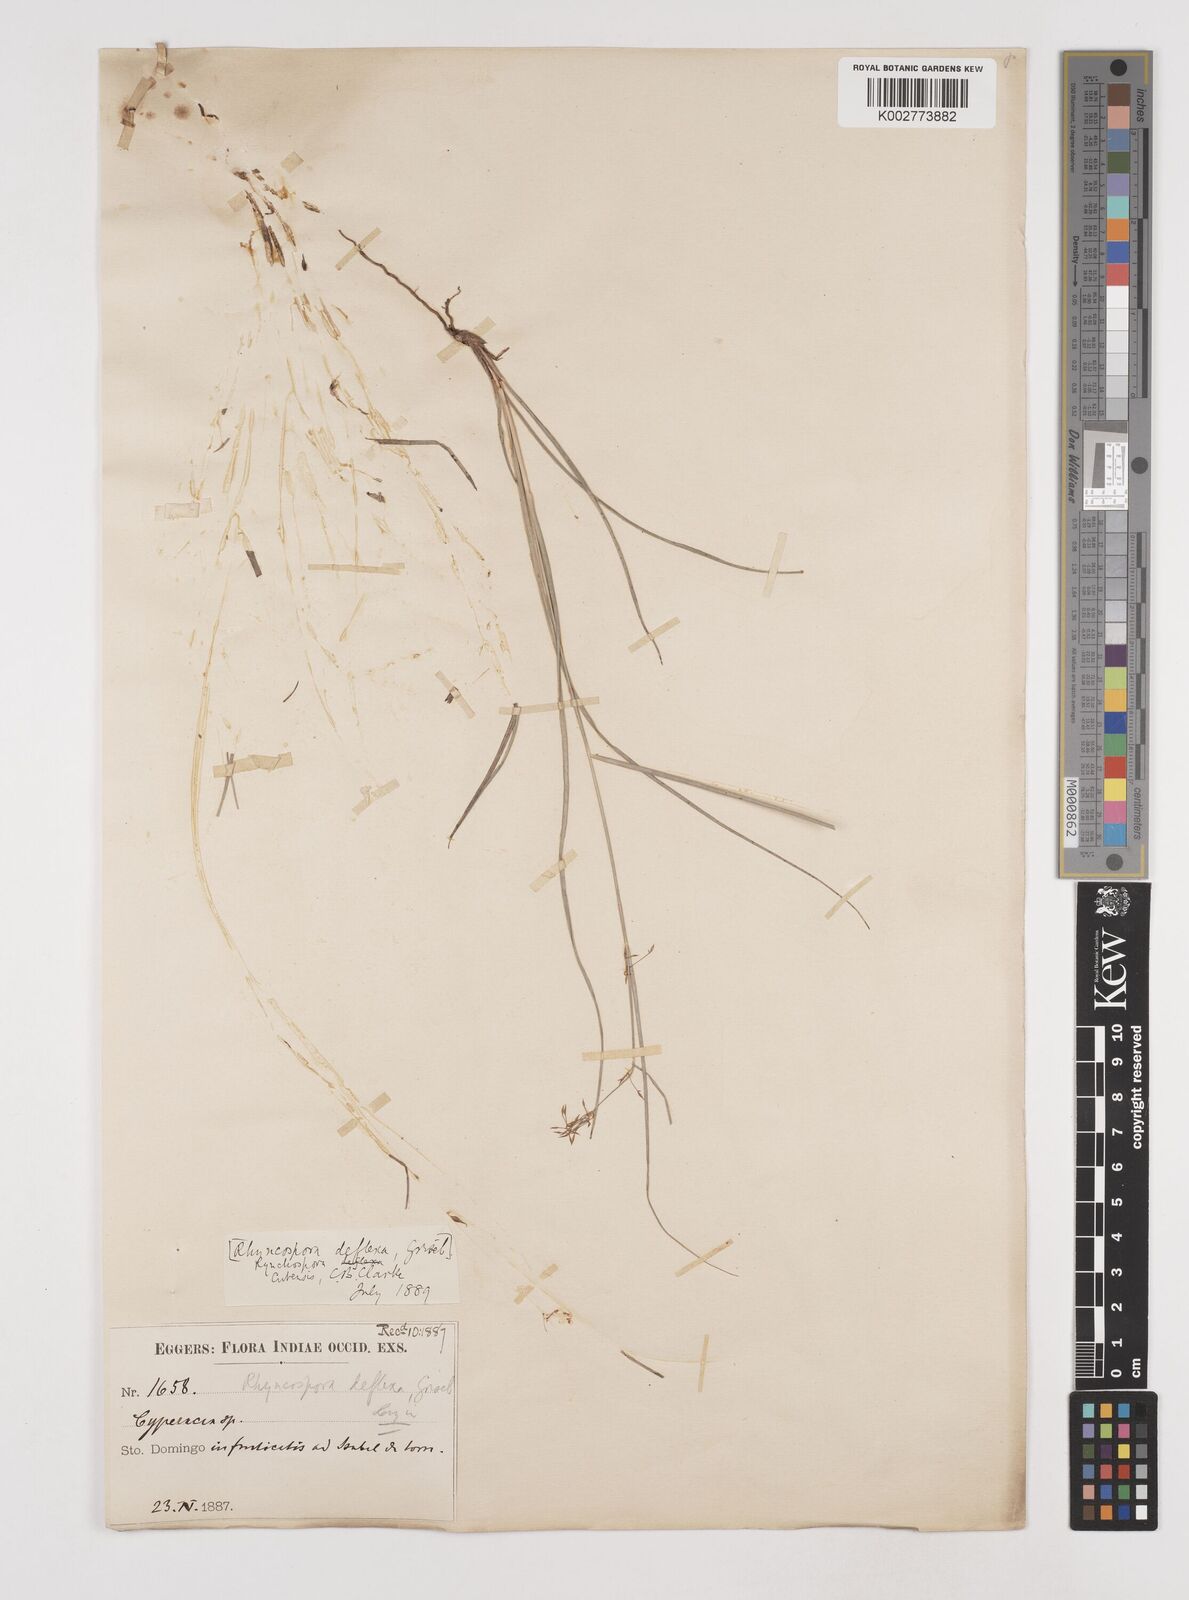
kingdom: Plantae
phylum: Tracheophyta
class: Liliopsida
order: Poales
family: Cyperaceae
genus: Rhynchospora
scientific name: Rhynchospora cubensis
